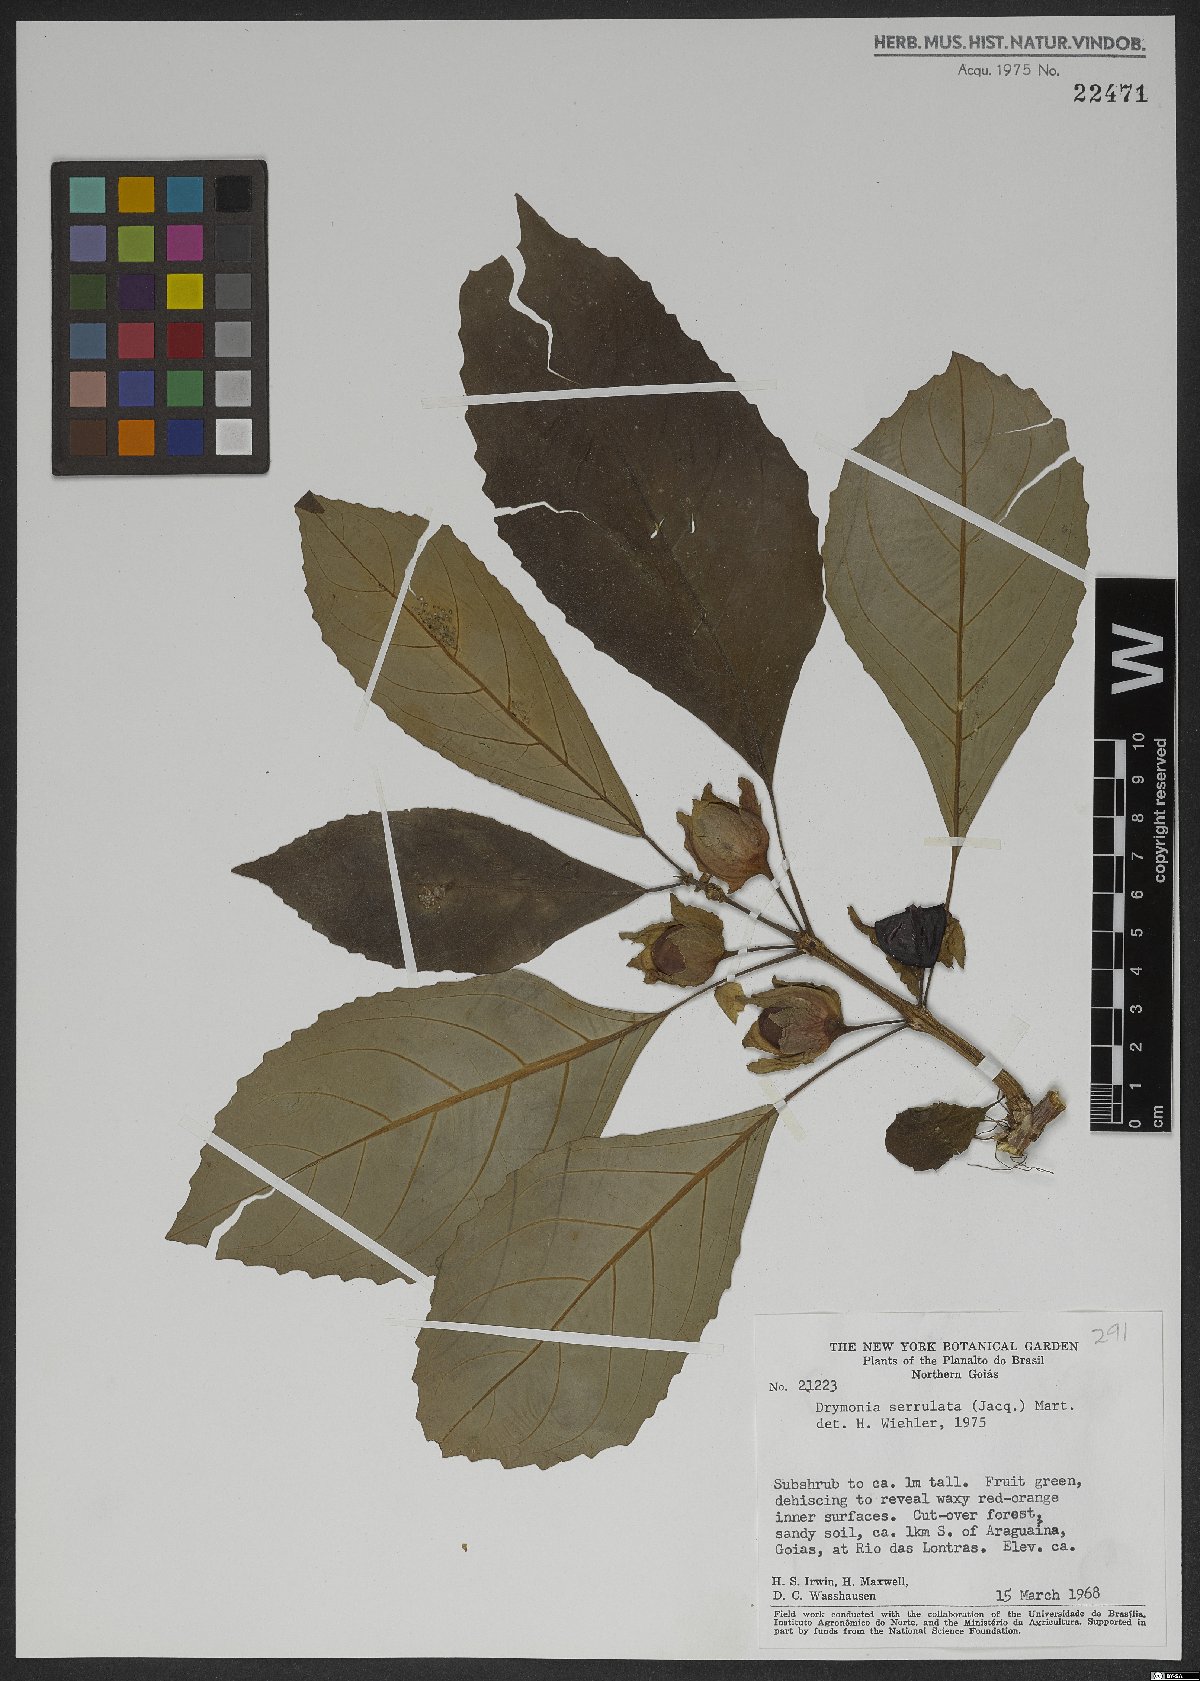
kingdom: Plantae
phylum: Tracheophyta
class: Magnoliopsida
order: Lamiales
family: Gesneriaceae
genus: Drymonia
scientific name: Drymonia serrulata
